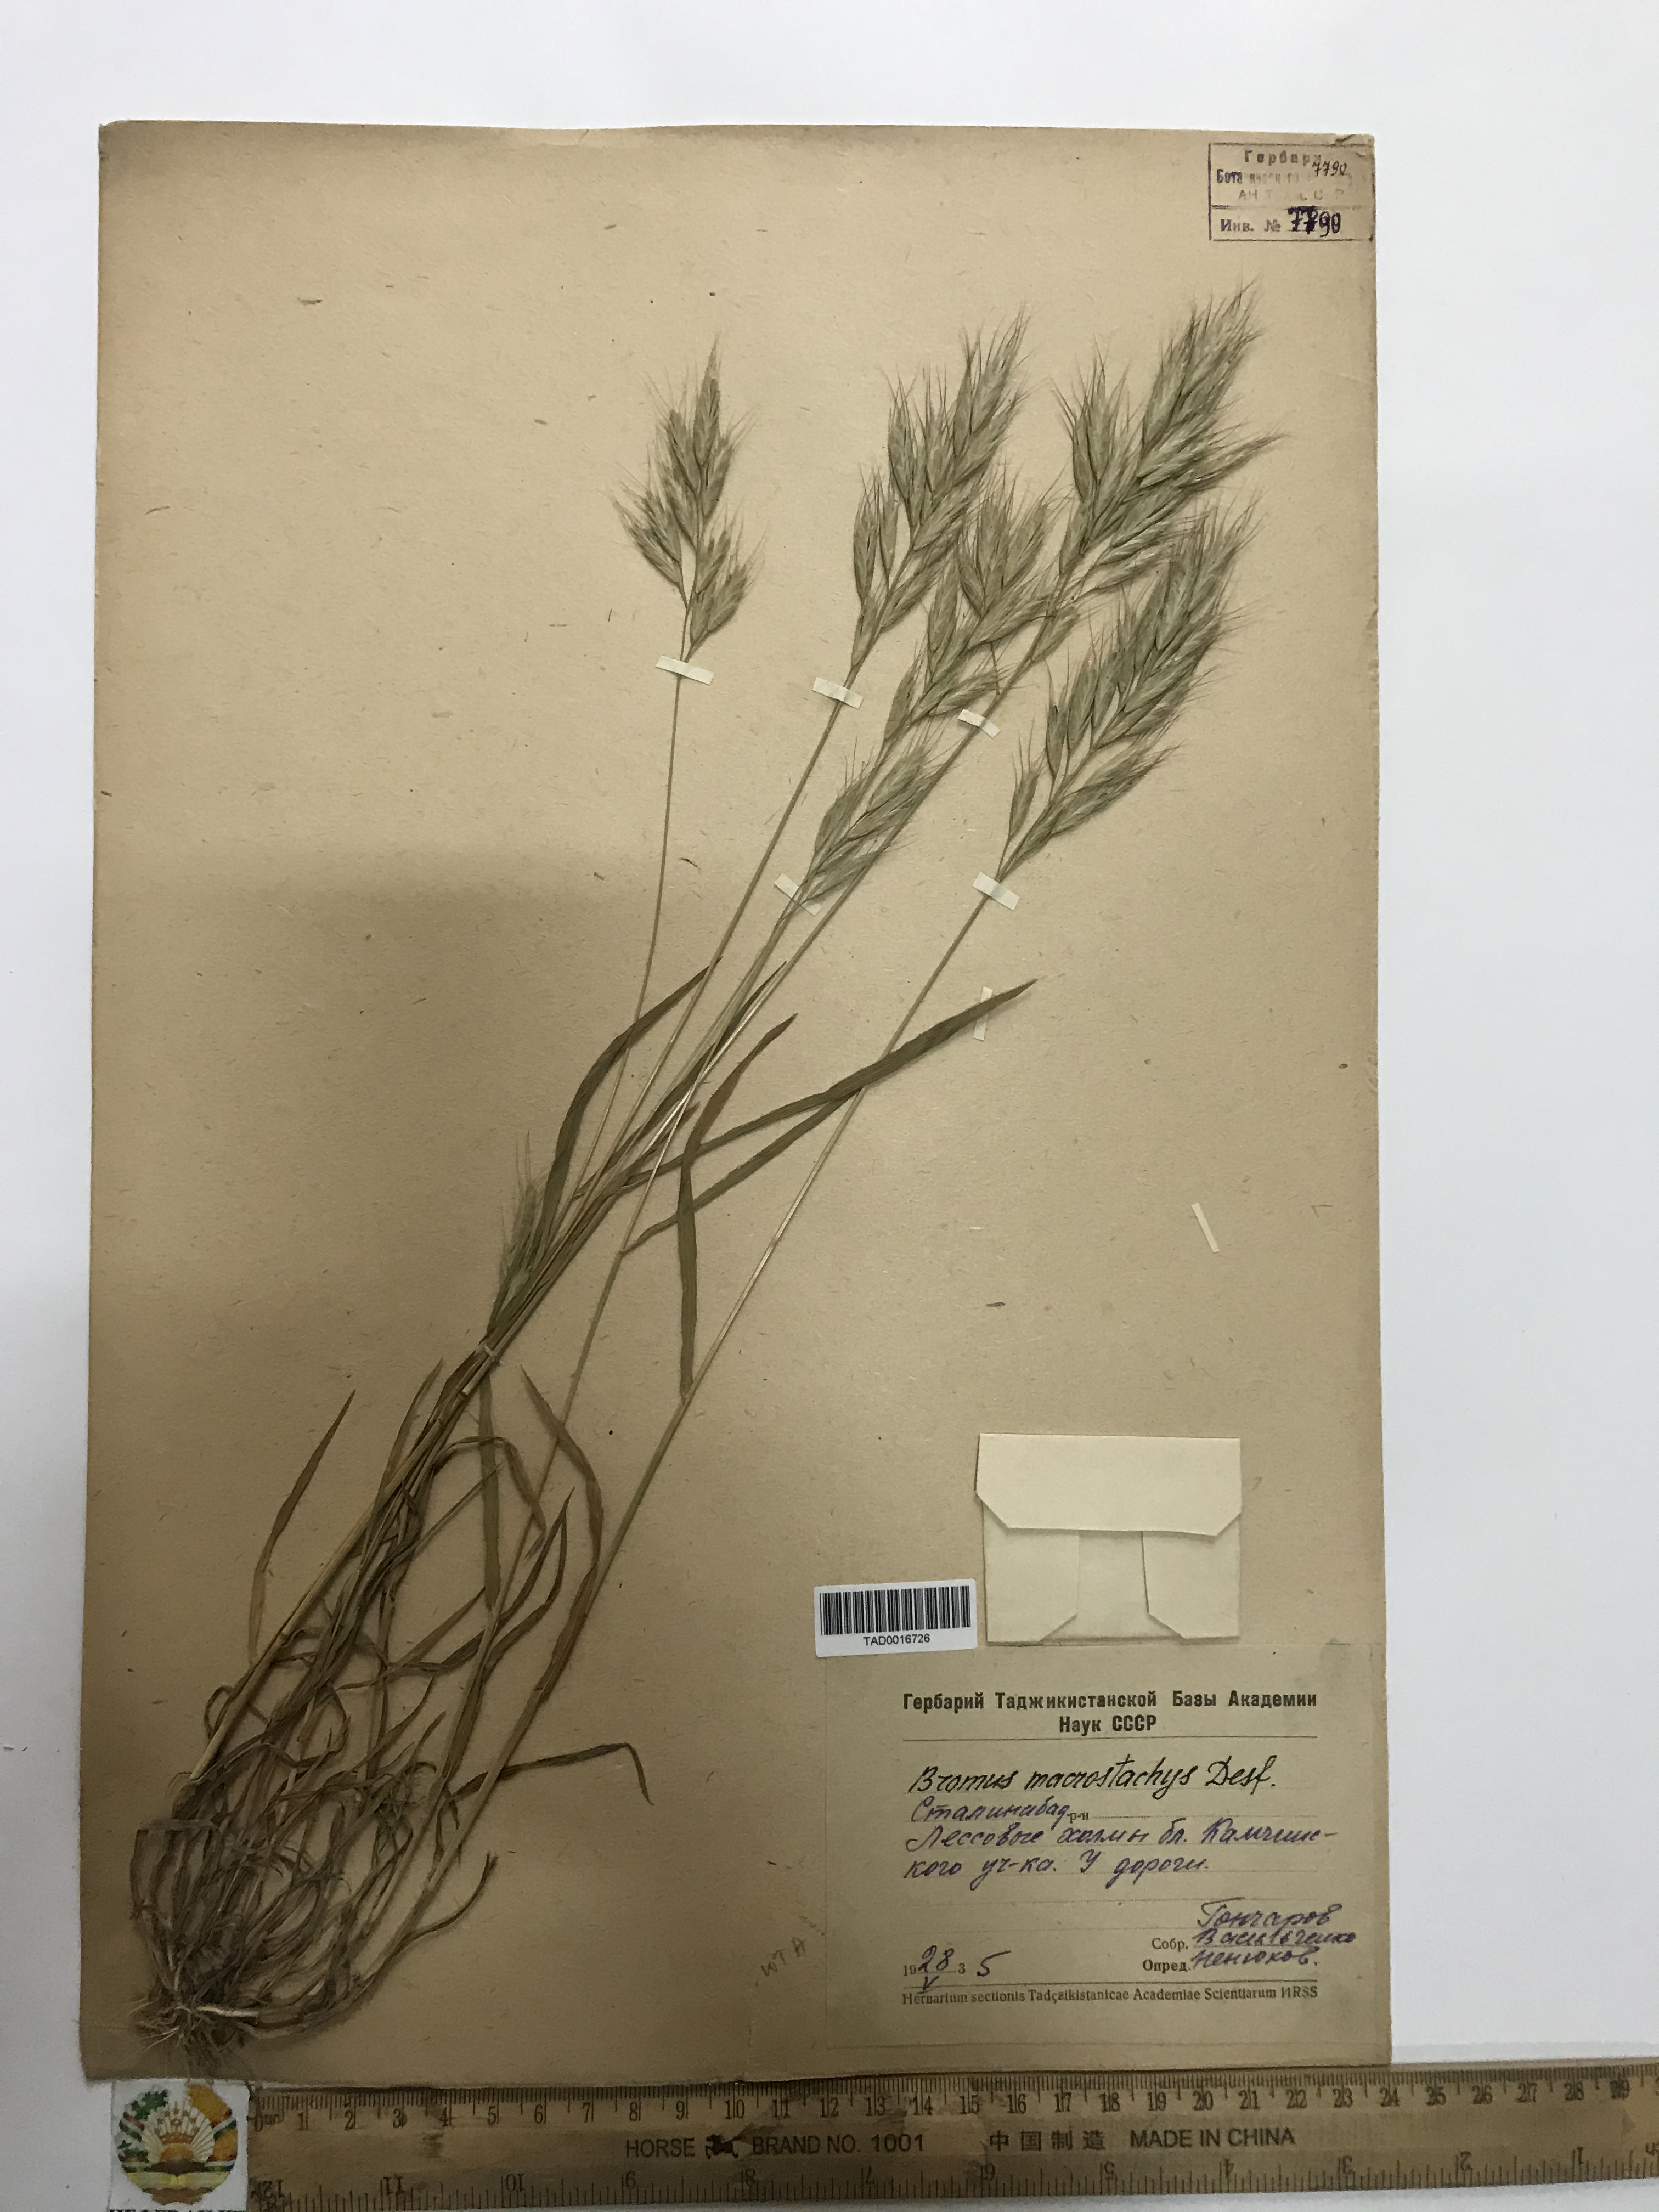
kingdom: Plantae
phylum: Tracheophyta
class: Liliopsida
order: Poales
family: Poaceae
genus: Bromus
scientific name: Bromus lanceolatus
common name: Mediterranean brome
